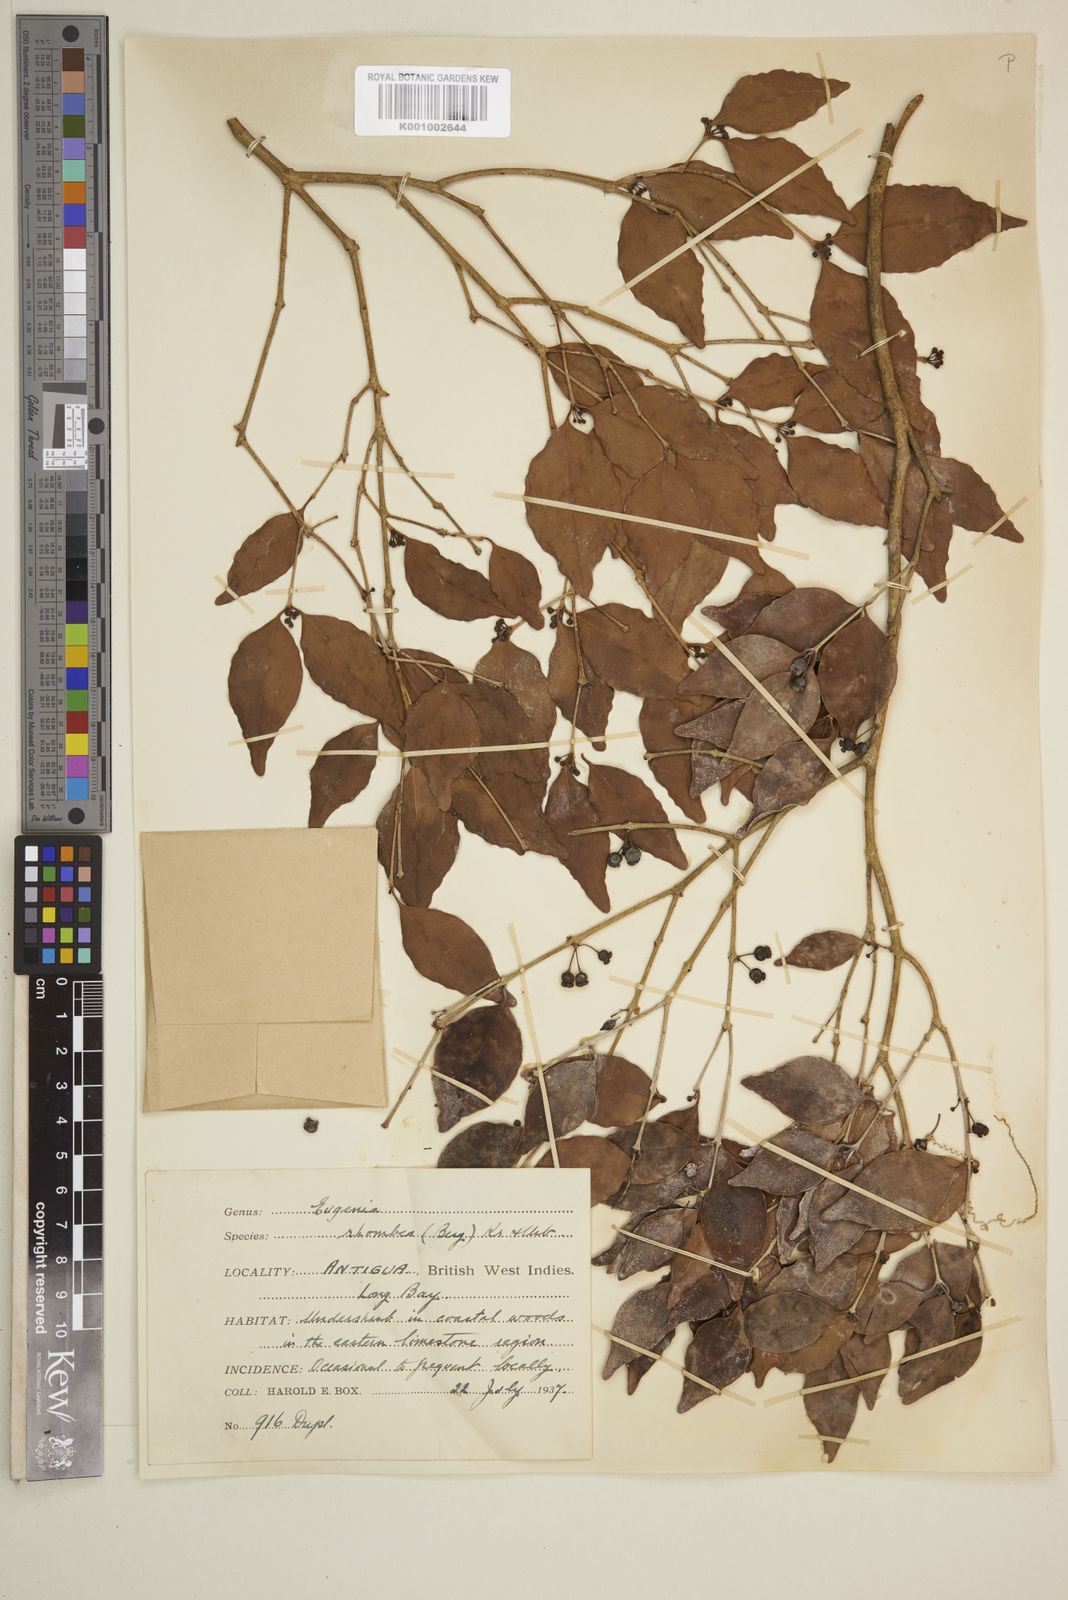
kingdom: Plantae
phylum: Tracheophyta
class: Magnoliopsida
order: Myrtales
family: Myrtaceae
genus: Eugenia
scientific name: Eugenia rhombea
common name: Pigeon berry
